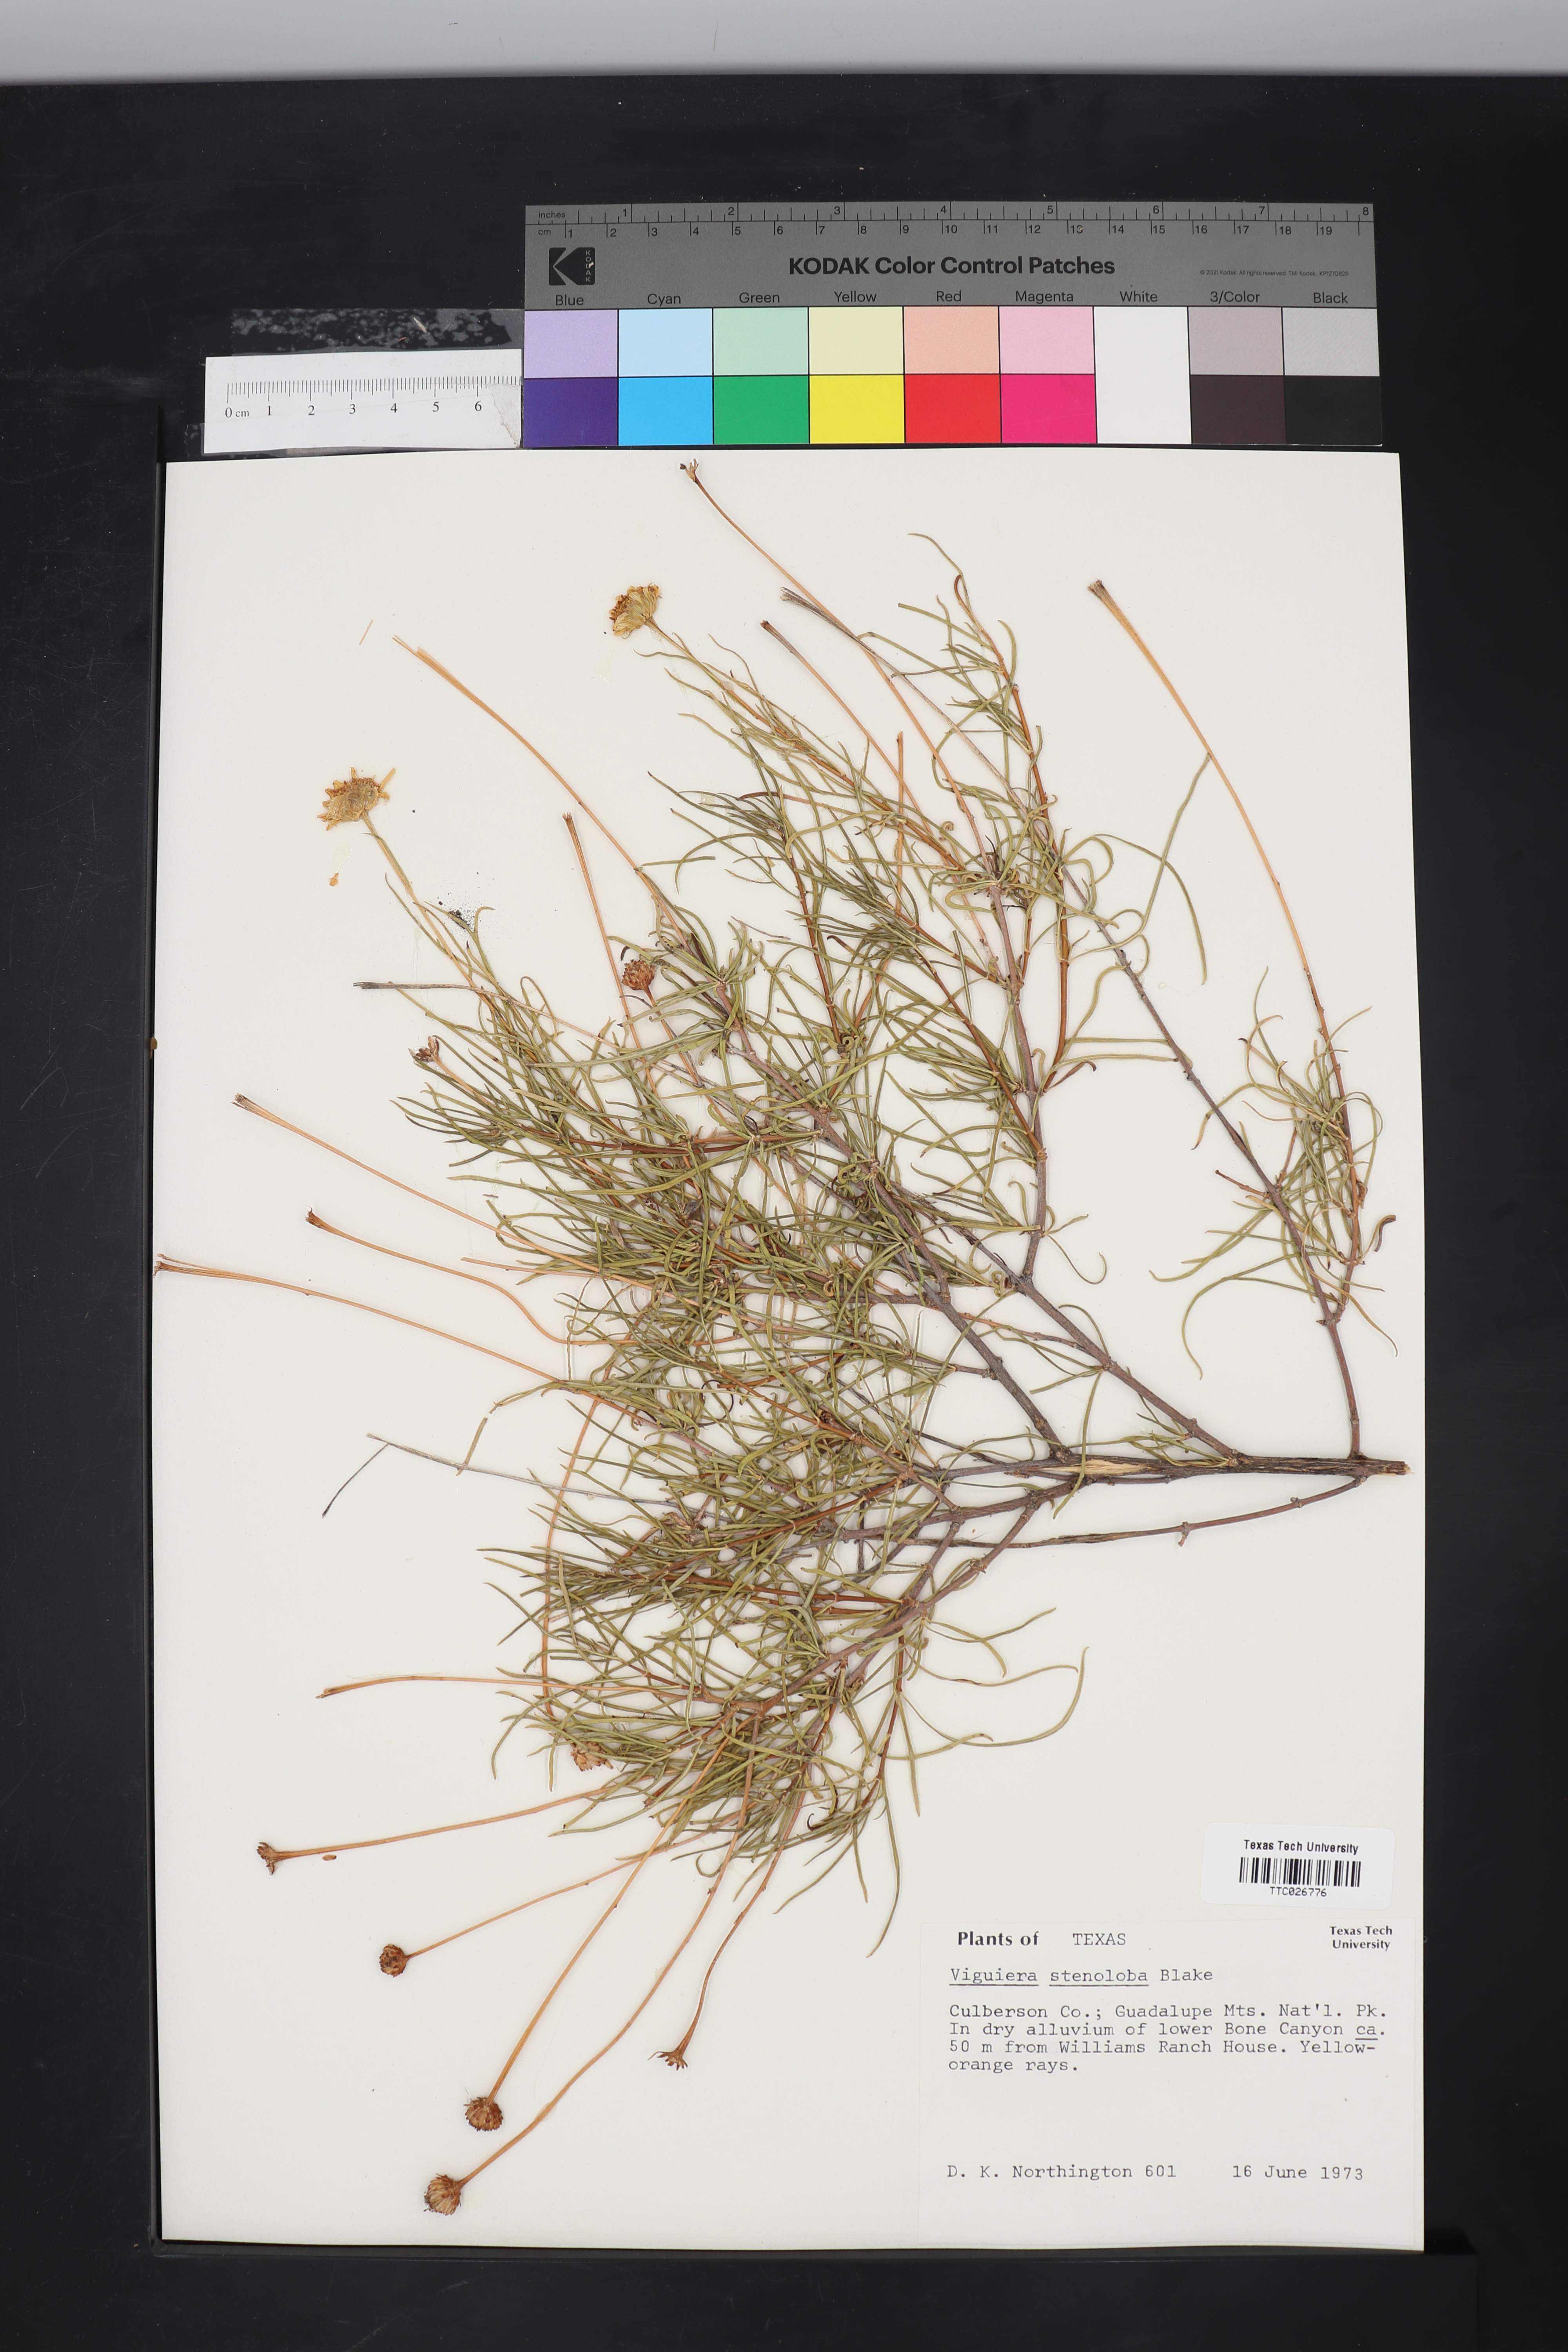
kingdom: Plantae
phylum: Tracheophyta
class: Magnoliopsida
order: Asterales
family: Asteraceae
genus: Sidneya
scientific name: Sidneya tenuifolia
